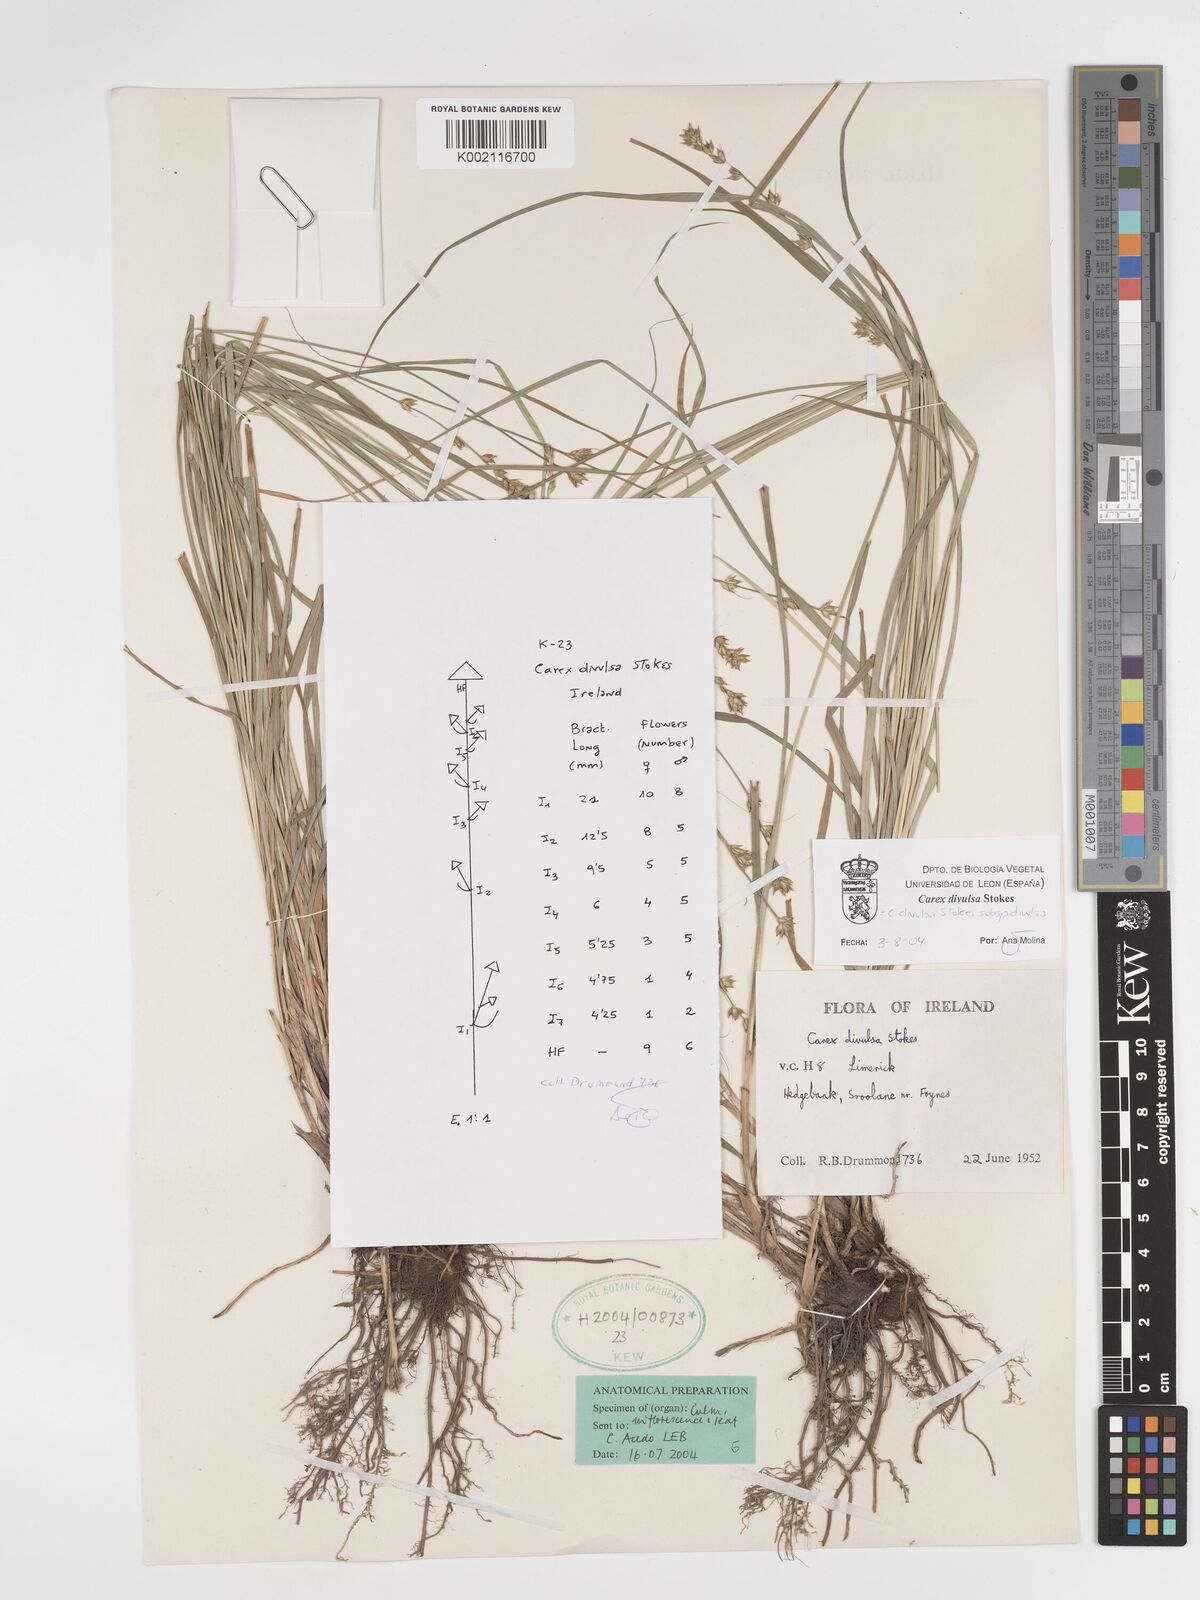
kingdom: Plantae
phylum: Tracheophyta
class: Liliopsida
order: Poales
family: Cyperaceae
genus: Carex
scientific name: Carex divulsa
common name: Grassland sedge
